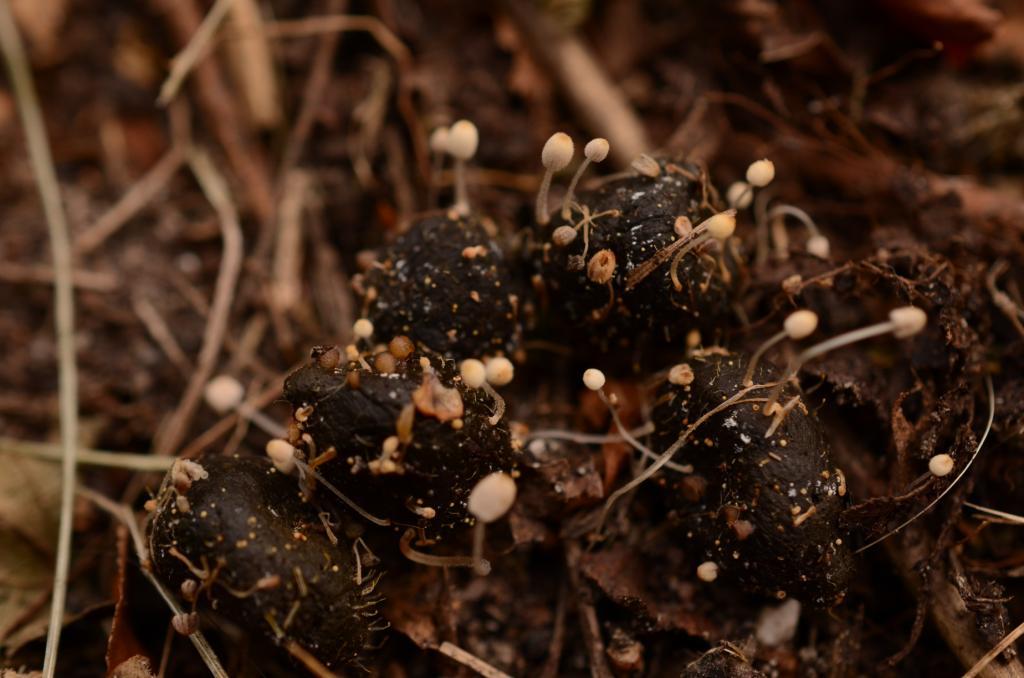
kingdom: Fungi
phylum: Basidiomycota
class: Agaricomycetes
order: Agaricales
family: Psathyrellaceae
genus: Coprinellus
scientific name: Coprinellus pusillulus
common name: lillebitte blækhat
